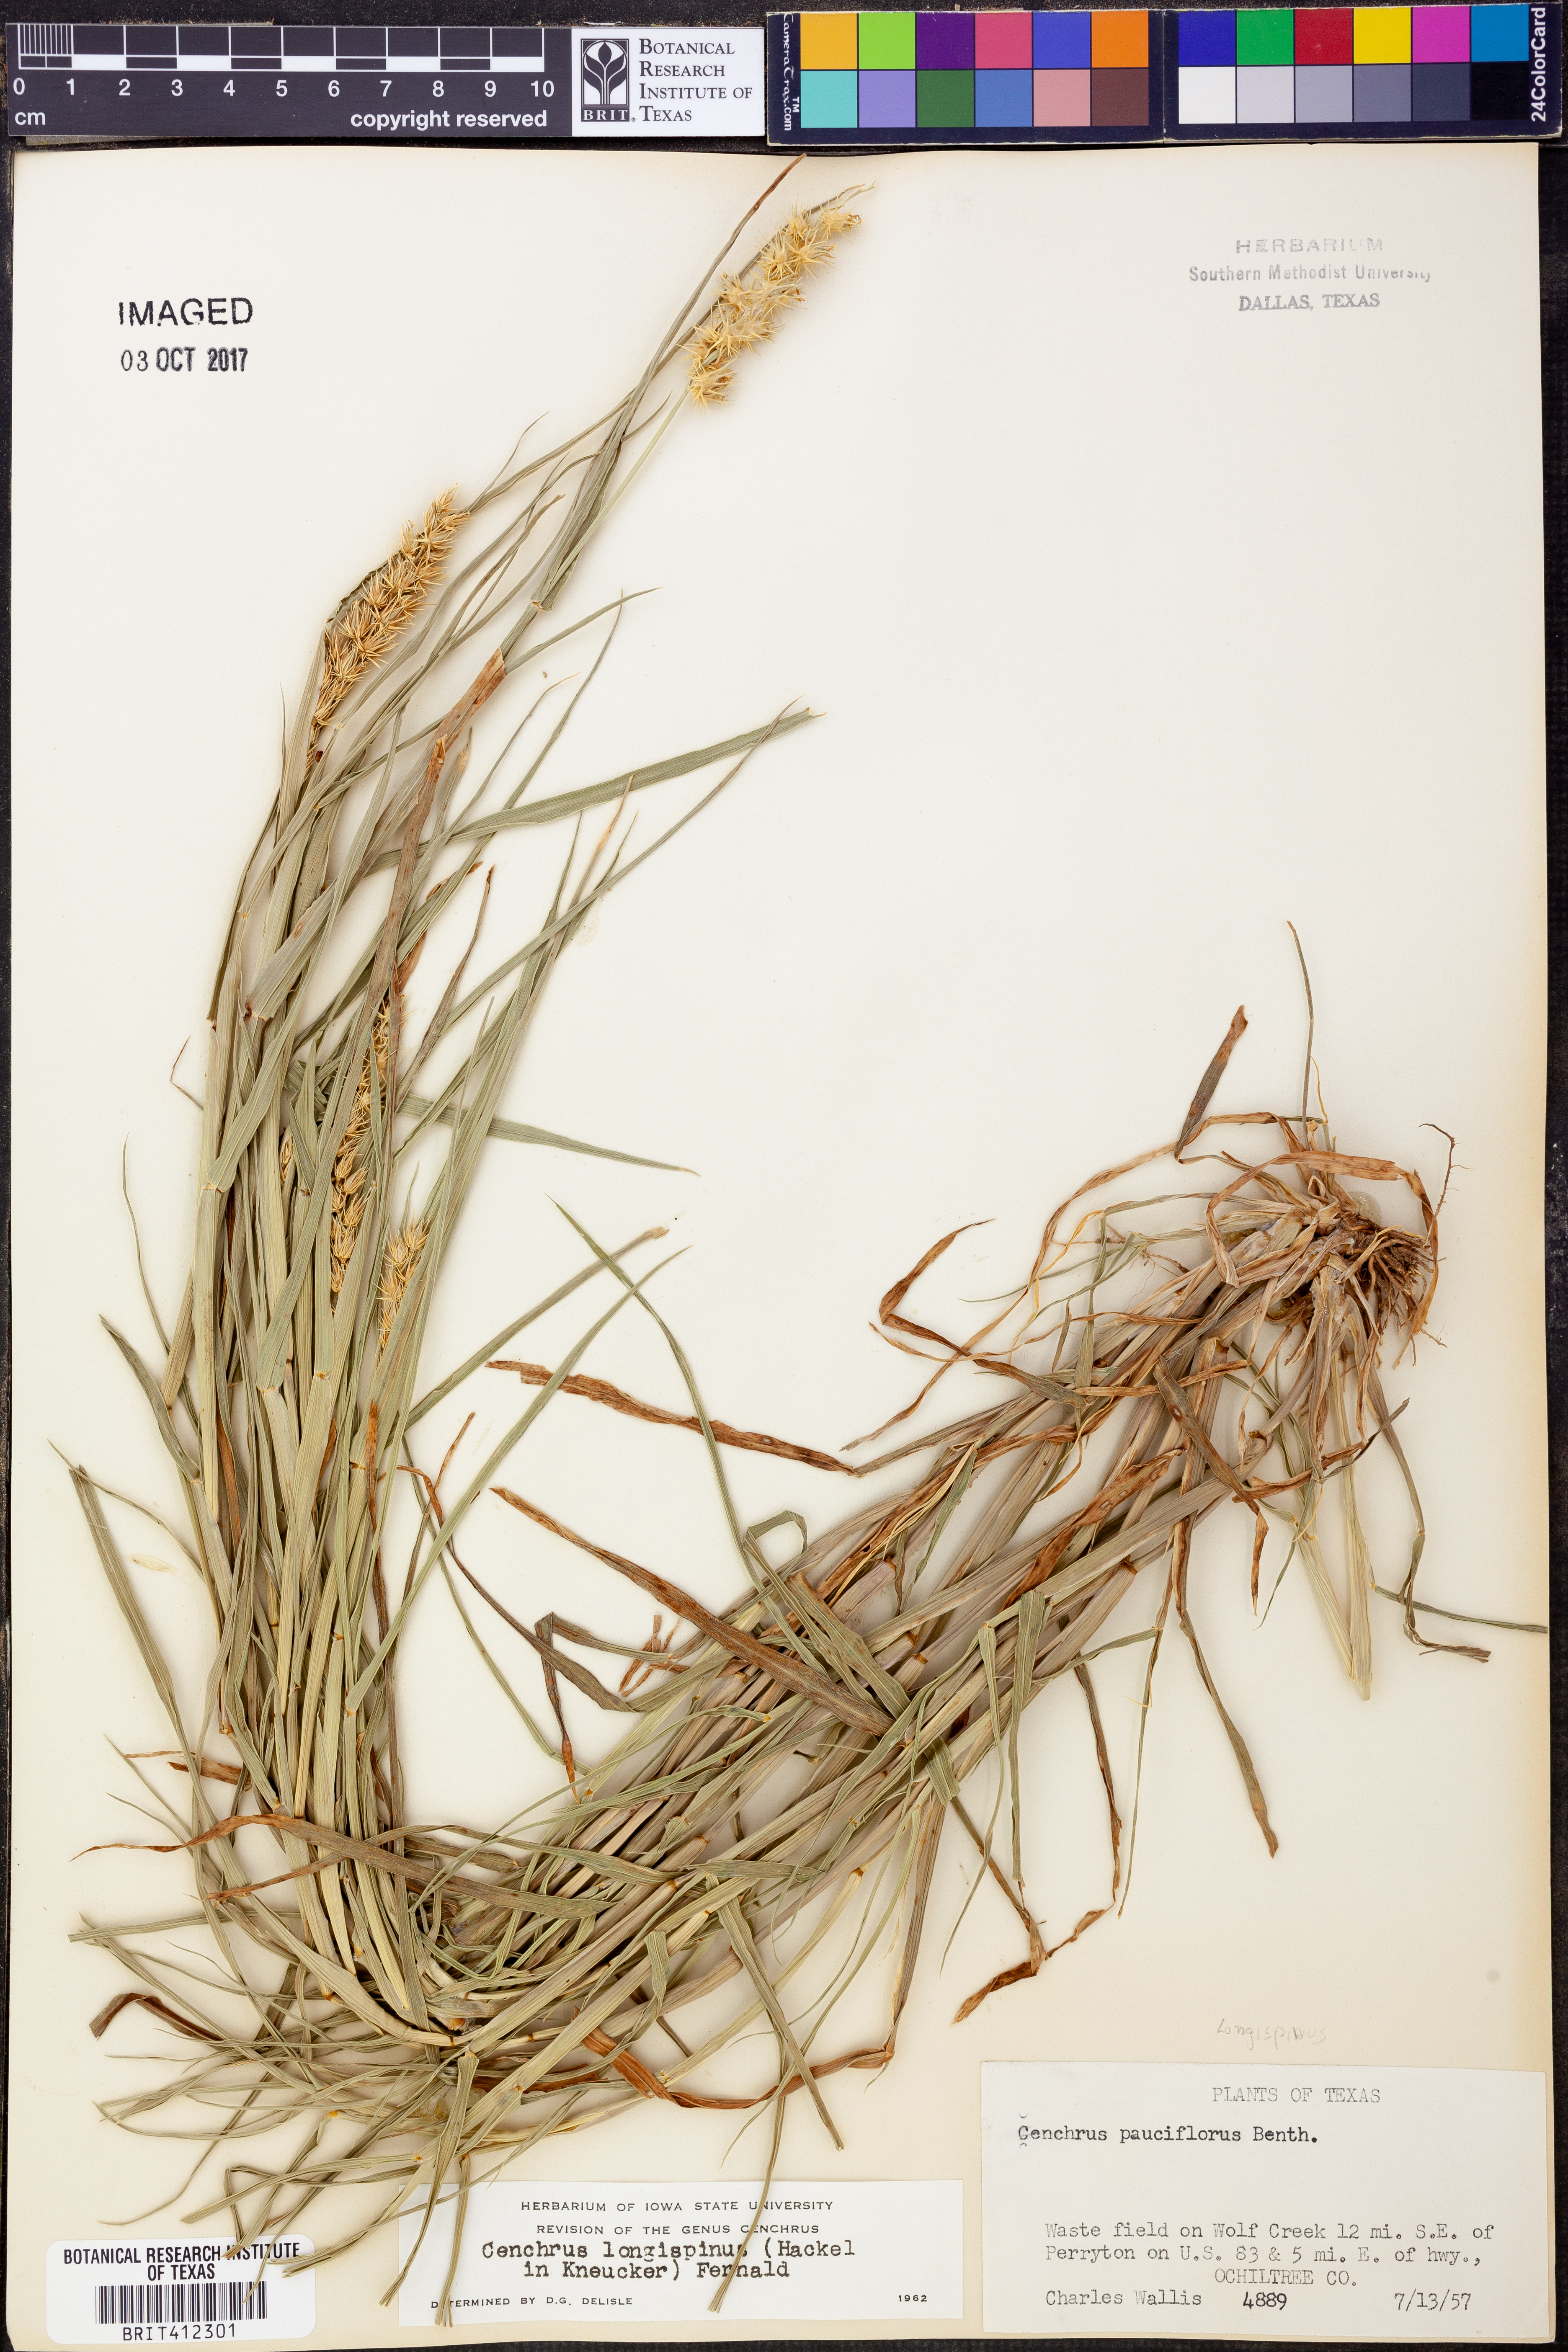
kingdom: Plantae
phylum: Tracheophyta
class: Liliopsida
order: Poales
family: Poaceae
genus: Cenchrus
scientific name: Cenchrus longispinus
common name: Mat sandbur
